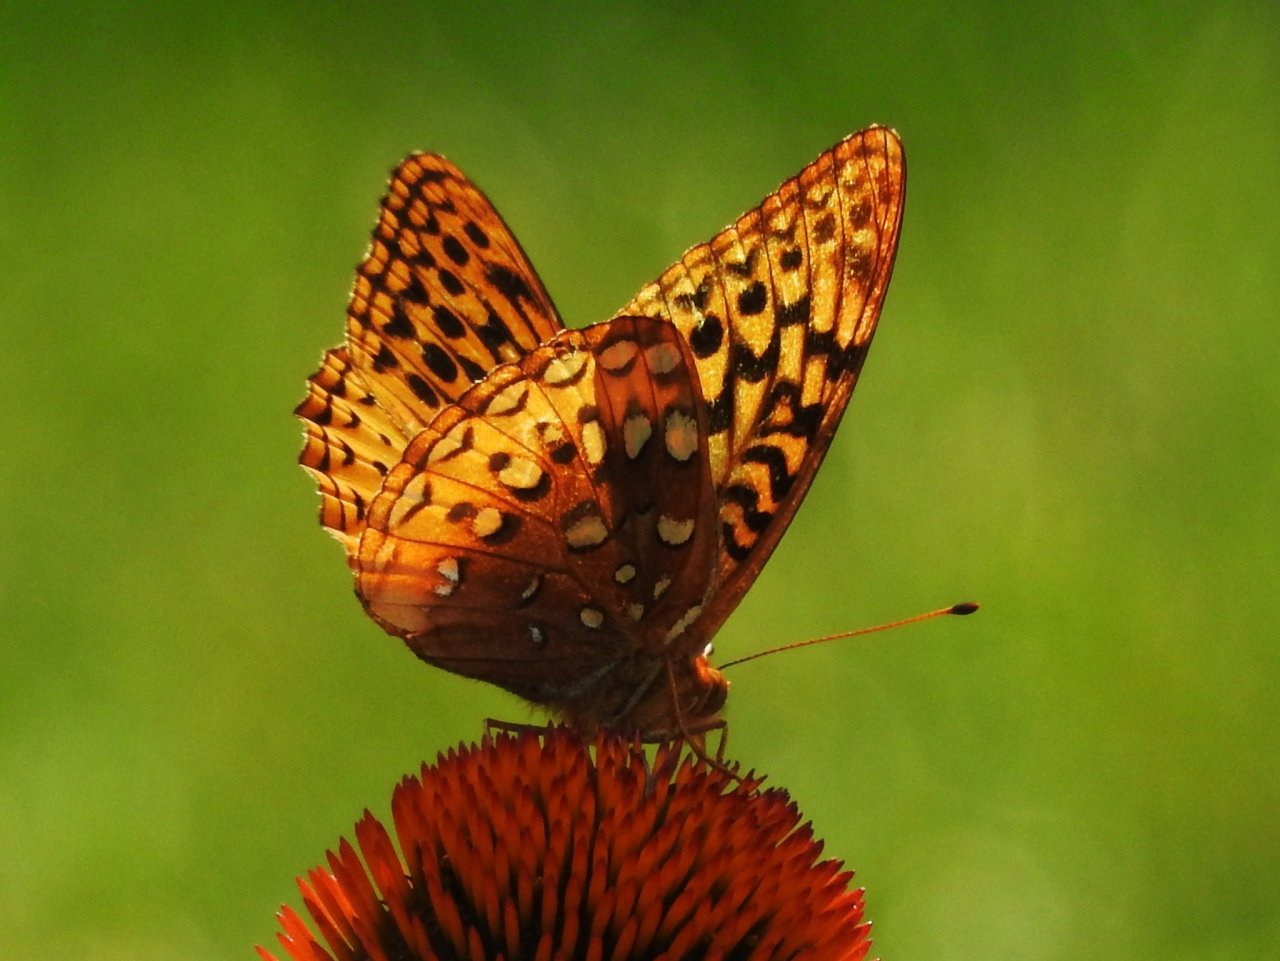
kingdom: Animalia
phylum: Arthropoda
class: Insecta
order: Lepidoptera
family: Nymphalidae
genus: Speyeria
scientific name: Speyeria
